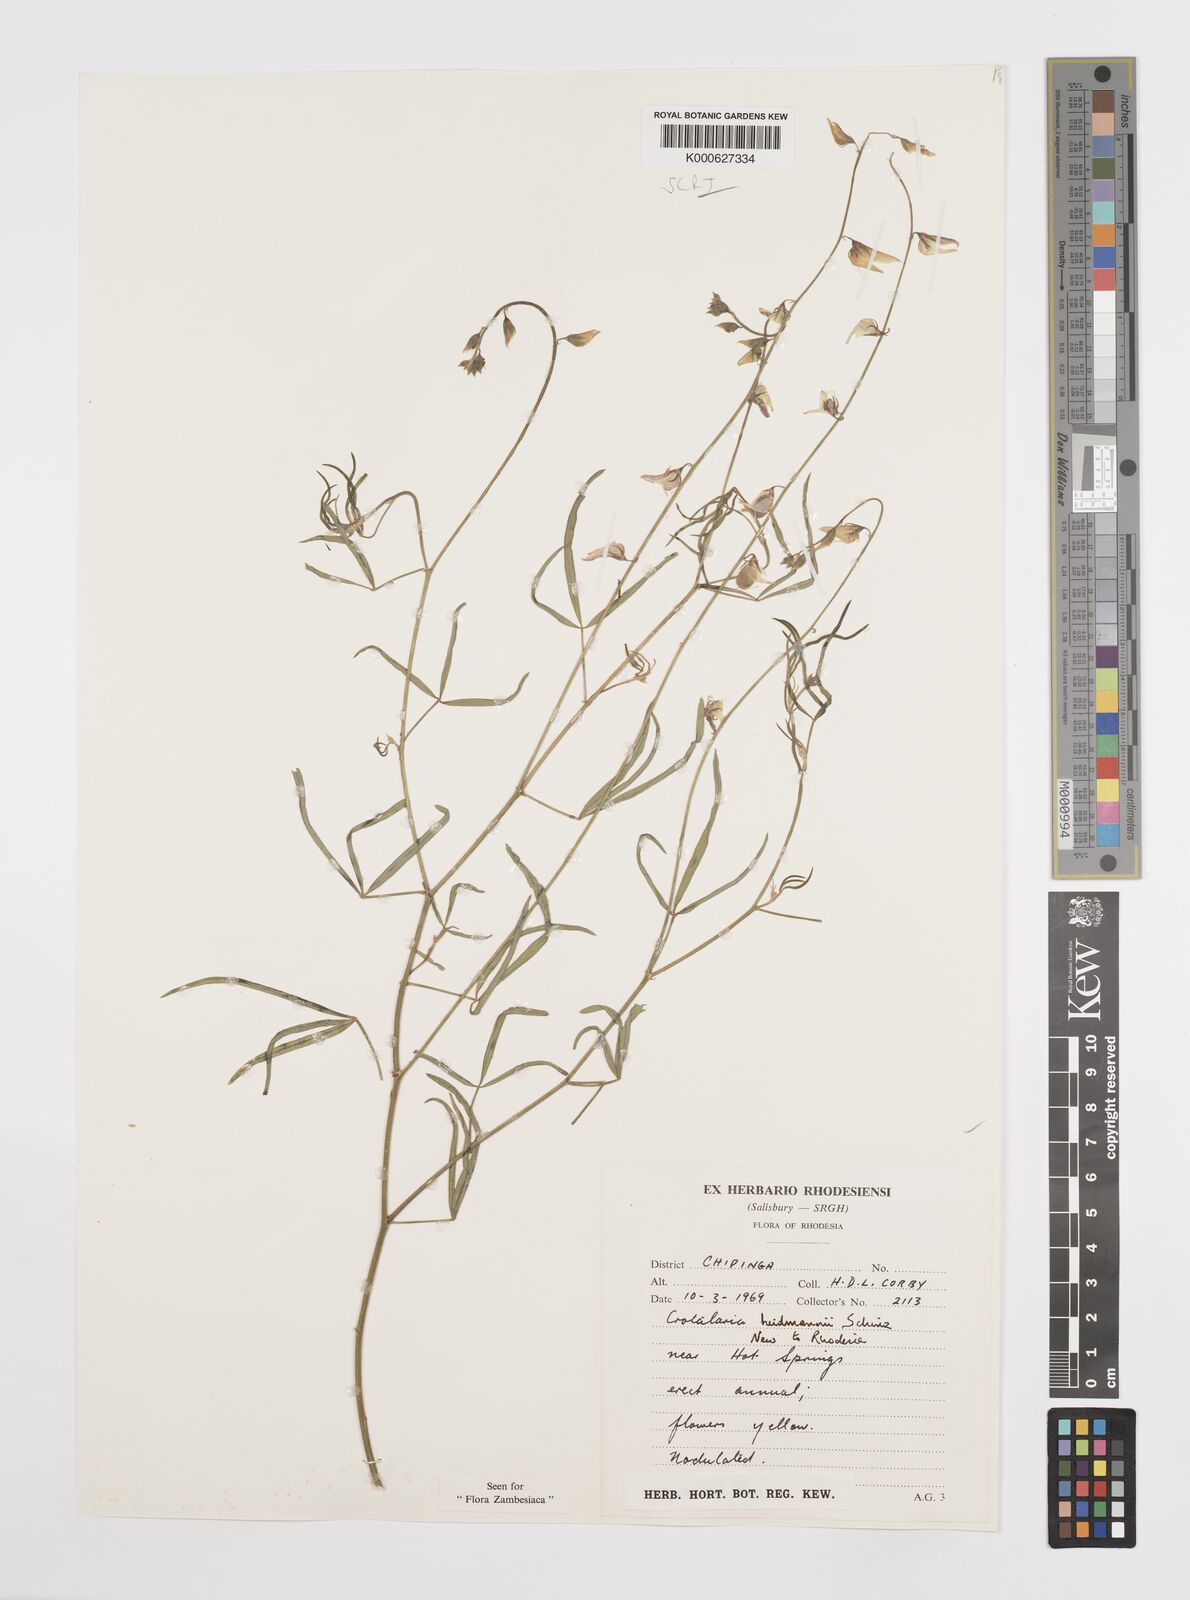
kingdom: Plantae
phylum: Tracheophyta
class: Magnoliopsida
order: Fabales
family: Fabaceae
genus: Crotalaria
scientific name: Crotalaria heidmannii
